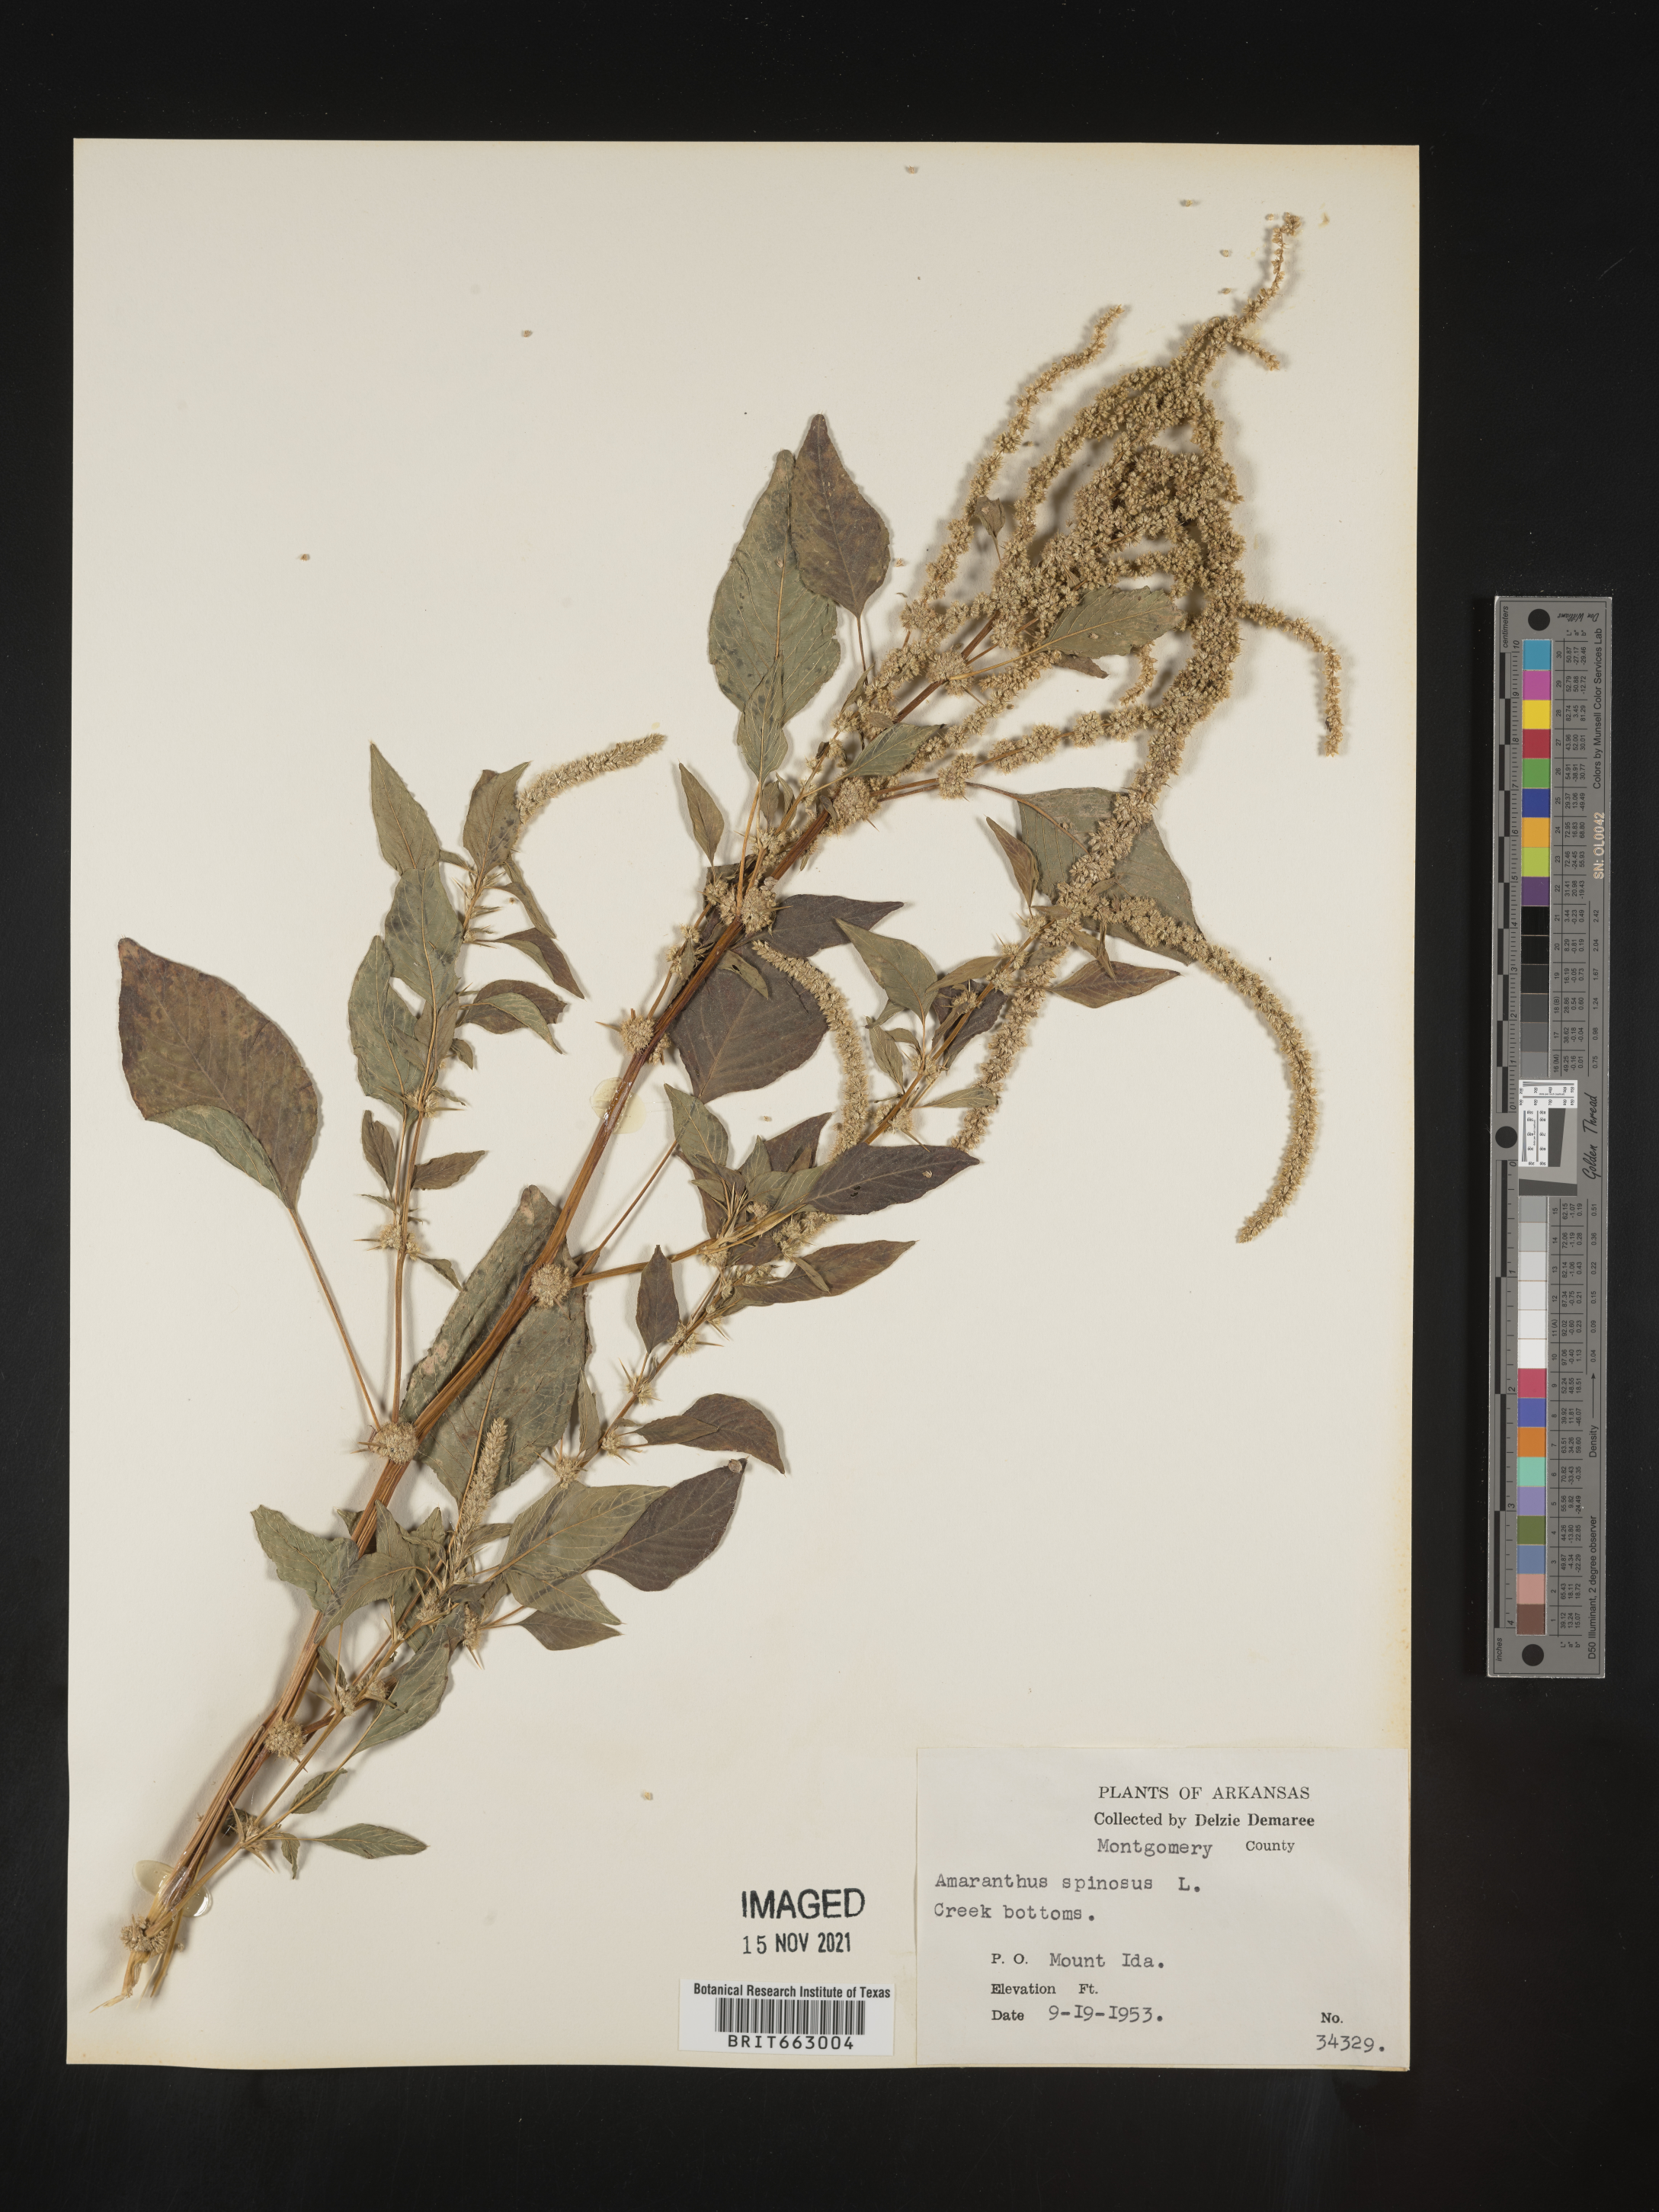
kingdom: Plantae
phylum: Tracheophyta
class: Magnoliopsida
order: Caryophyllales
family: Amaranthaceae
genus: Amaranthus
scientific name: Amaranthus spinosus
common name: Spiny amaranth
